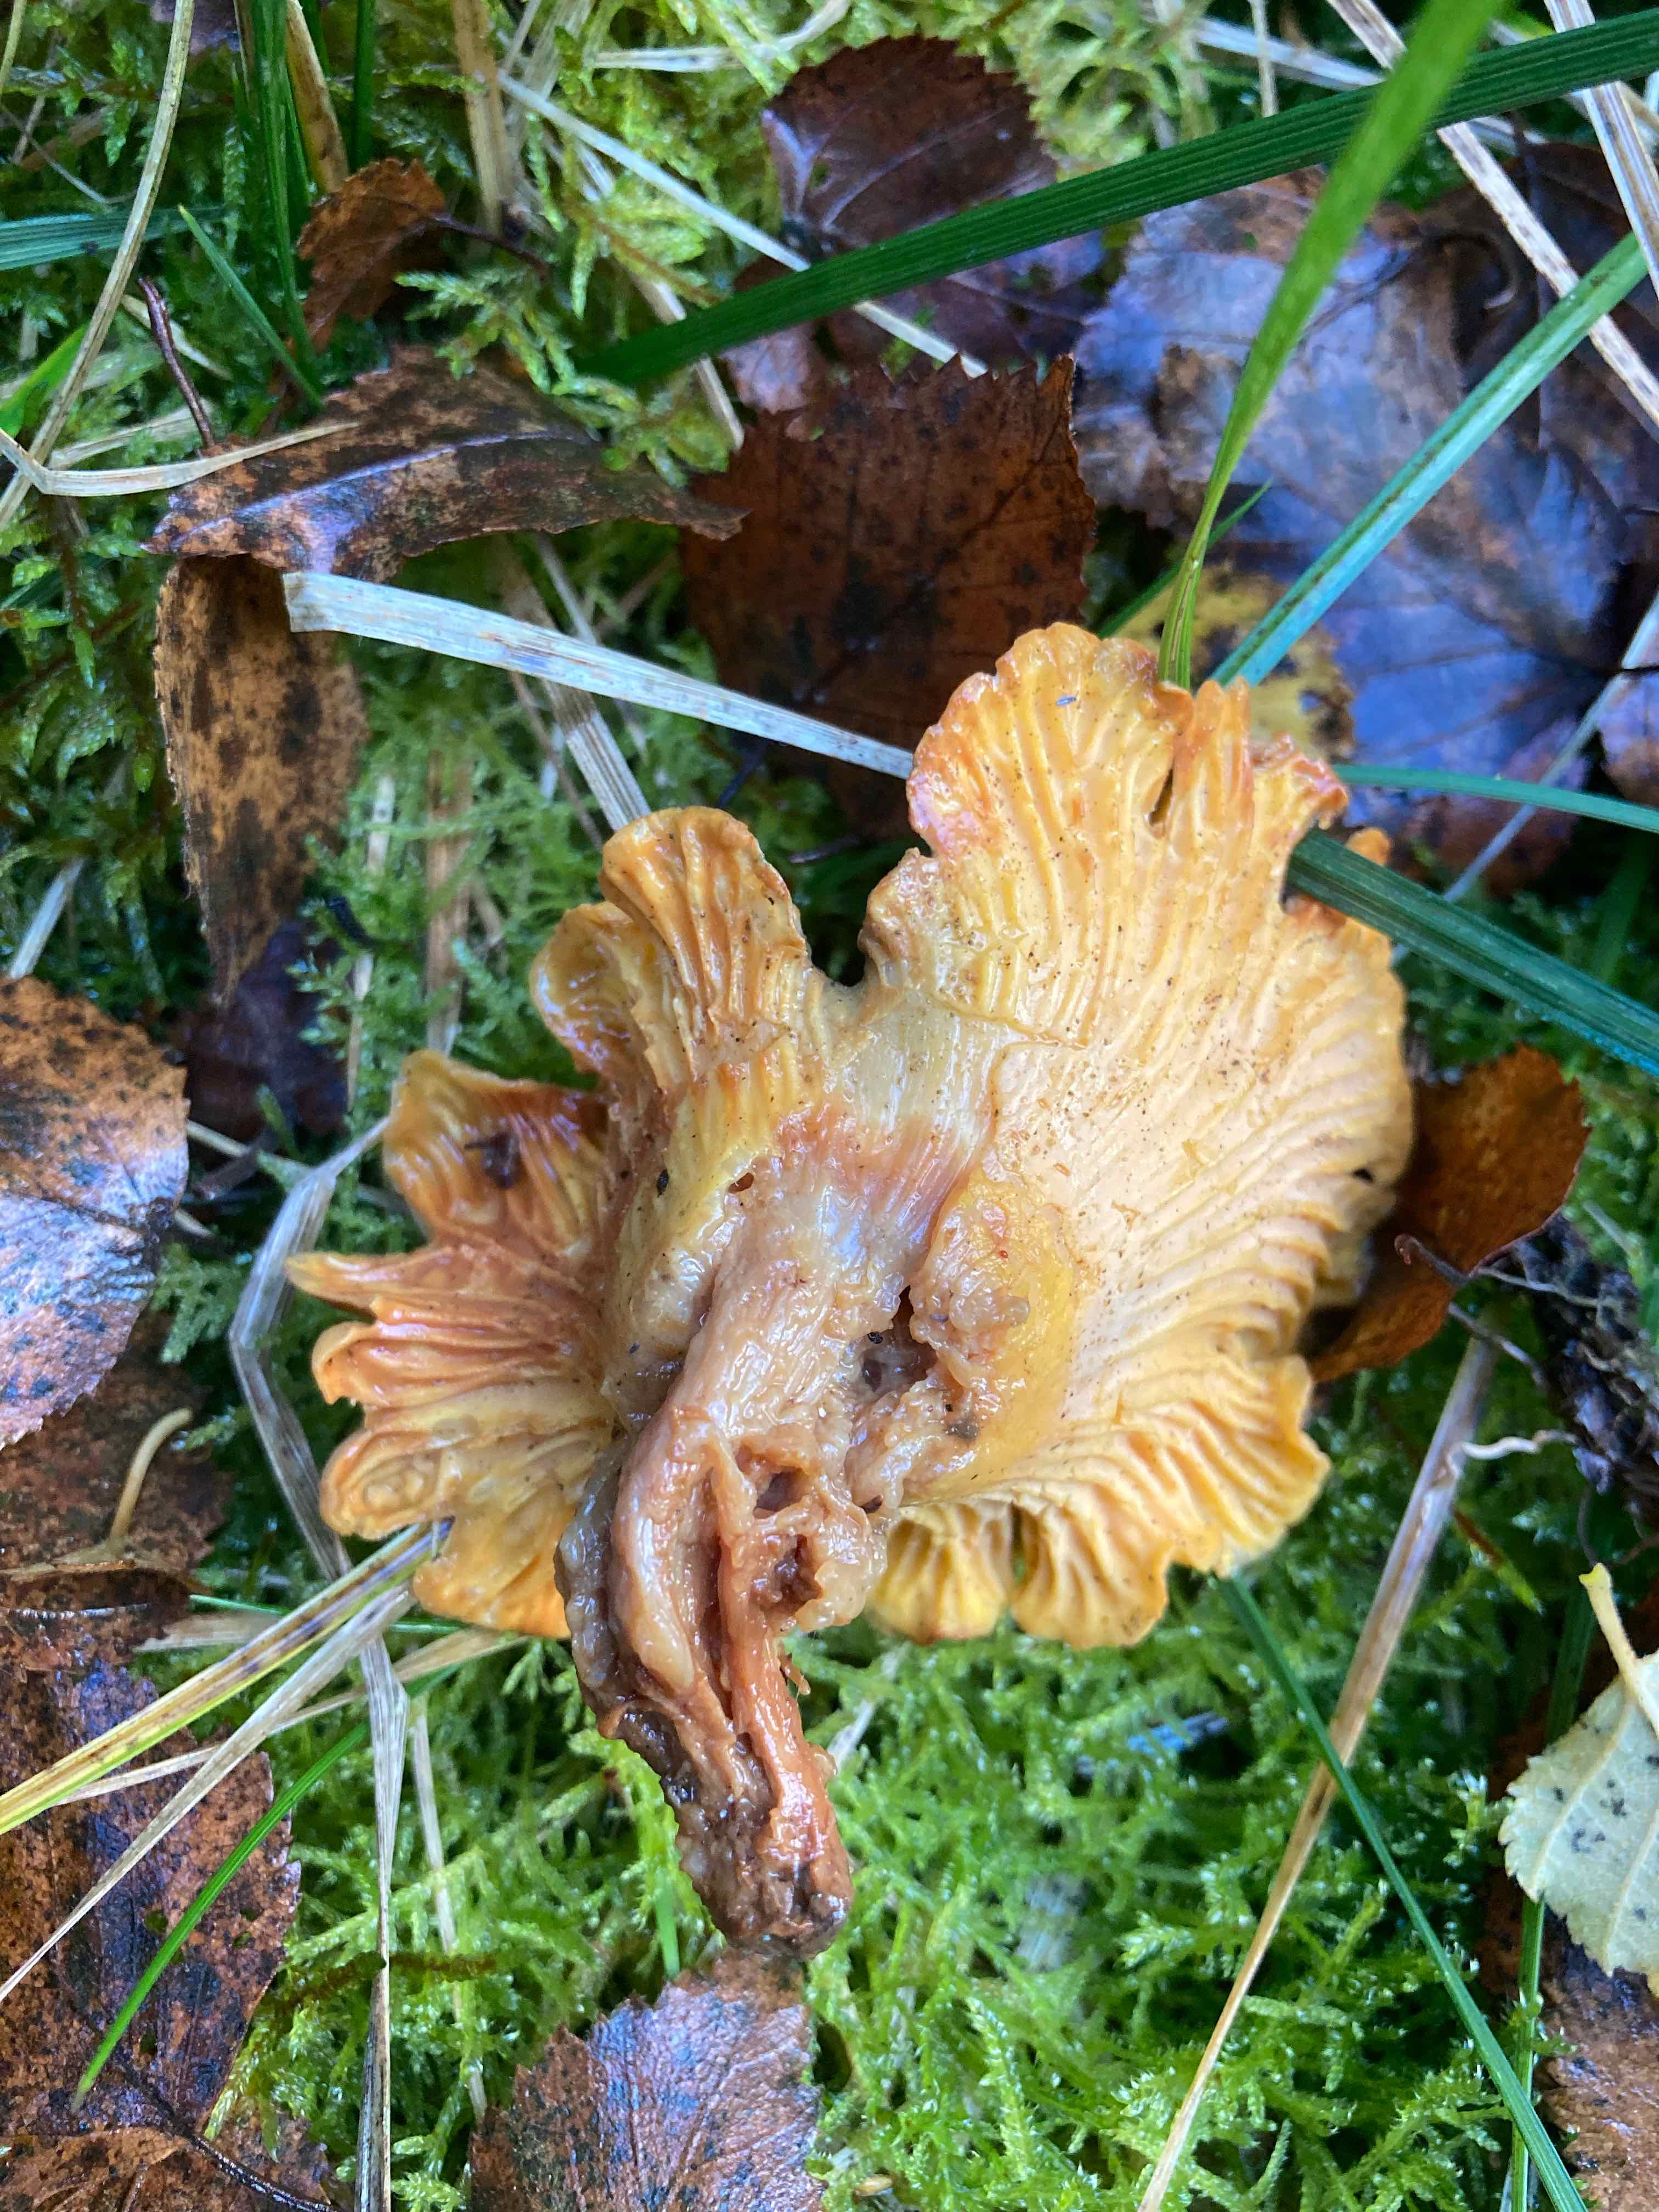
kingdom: Fungi
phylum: Basidiomycota
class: Agaricomycetes
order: Cantharellales
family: Hydnaceae
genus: Cantharellus
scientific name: Cantharellus cibarius
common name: almindelig kantarel
